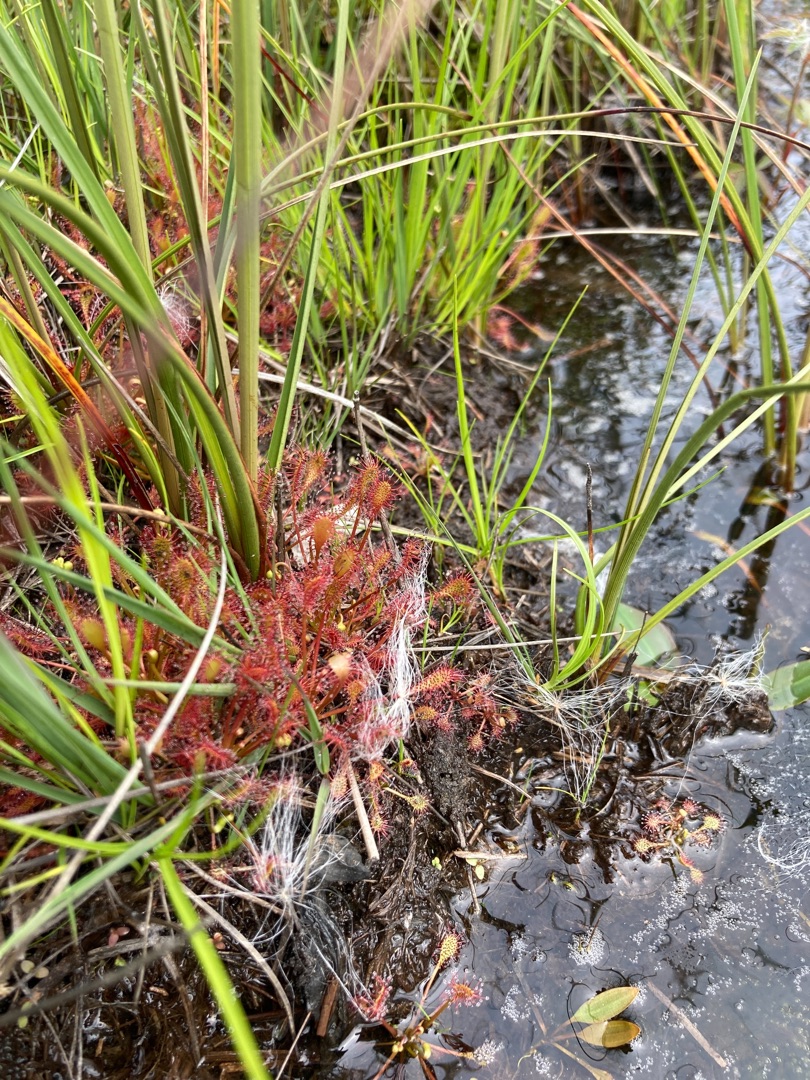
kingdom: Plantae
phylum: Tracheophyta
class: Magnoliopsida
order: Caryophyllales
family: Droseraceae
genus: Drosera
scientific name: Drosera intermedia
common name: Liden soldug
